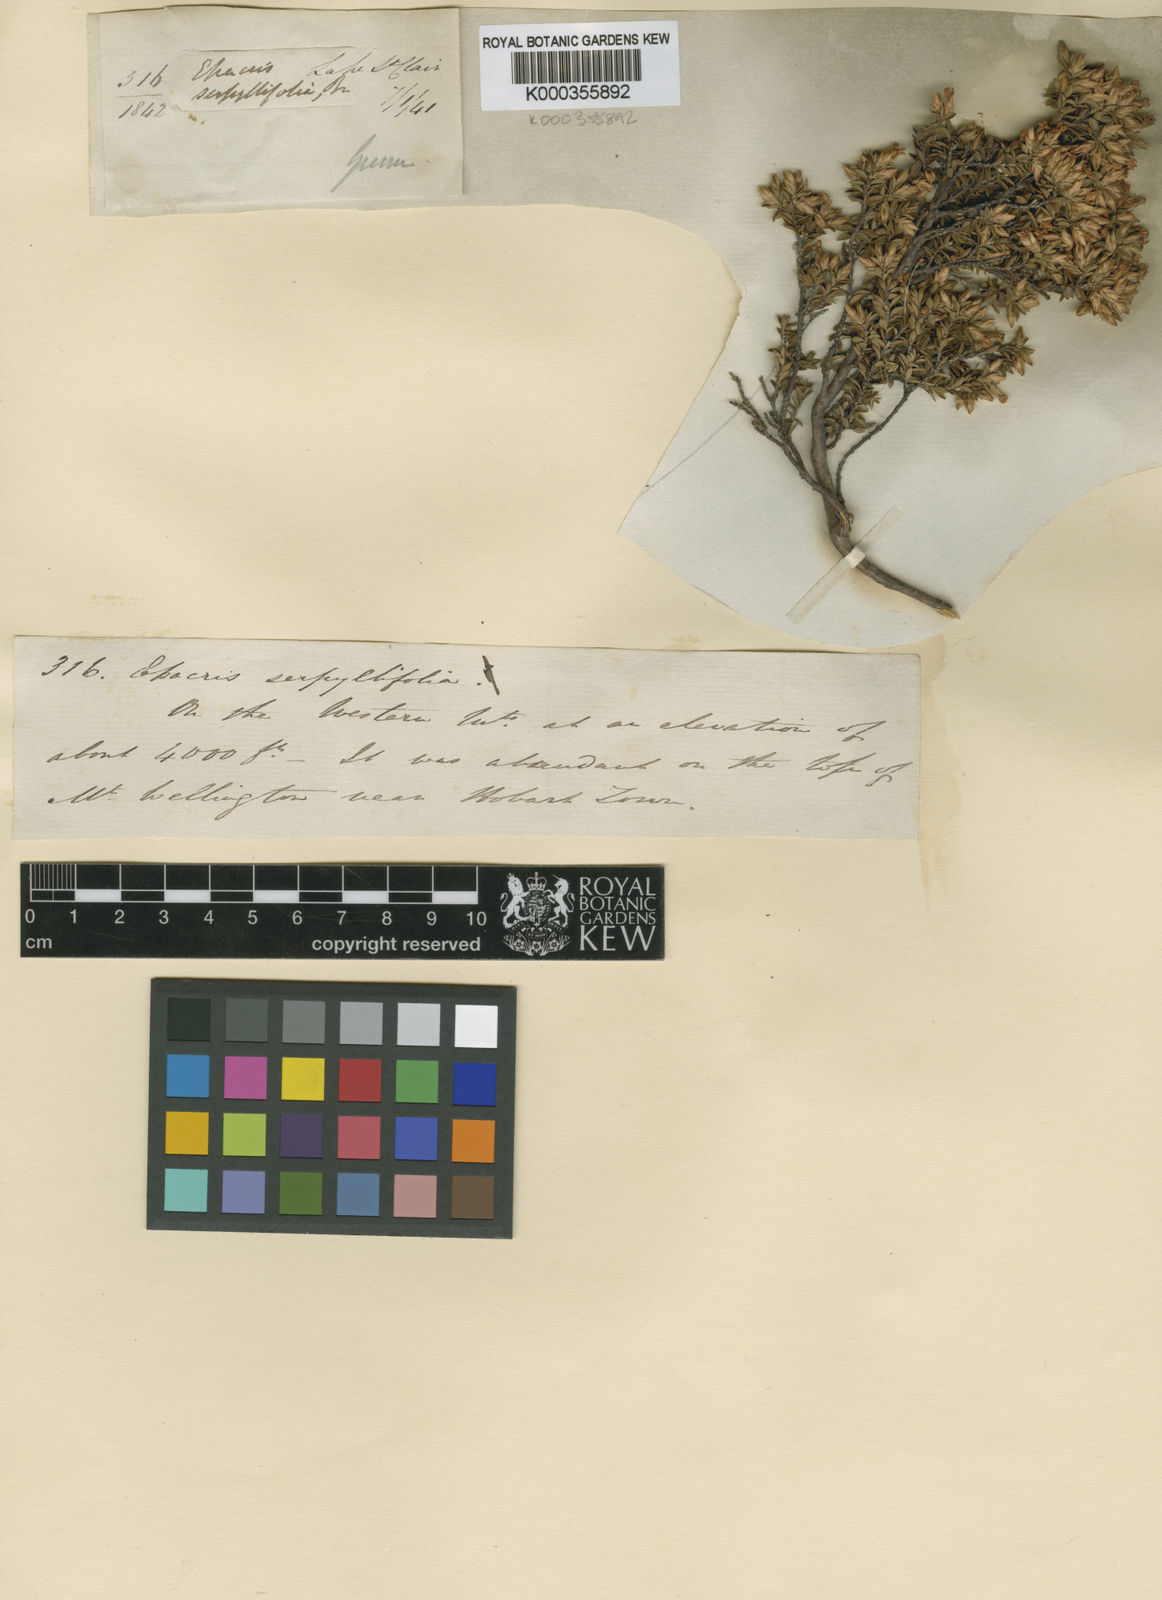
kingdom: Plantae
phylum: Tracheophyta
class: Magnoliopsida
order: Ericales
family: Ericaceae
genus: Epacris
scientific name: Epacris serpyllifolia
